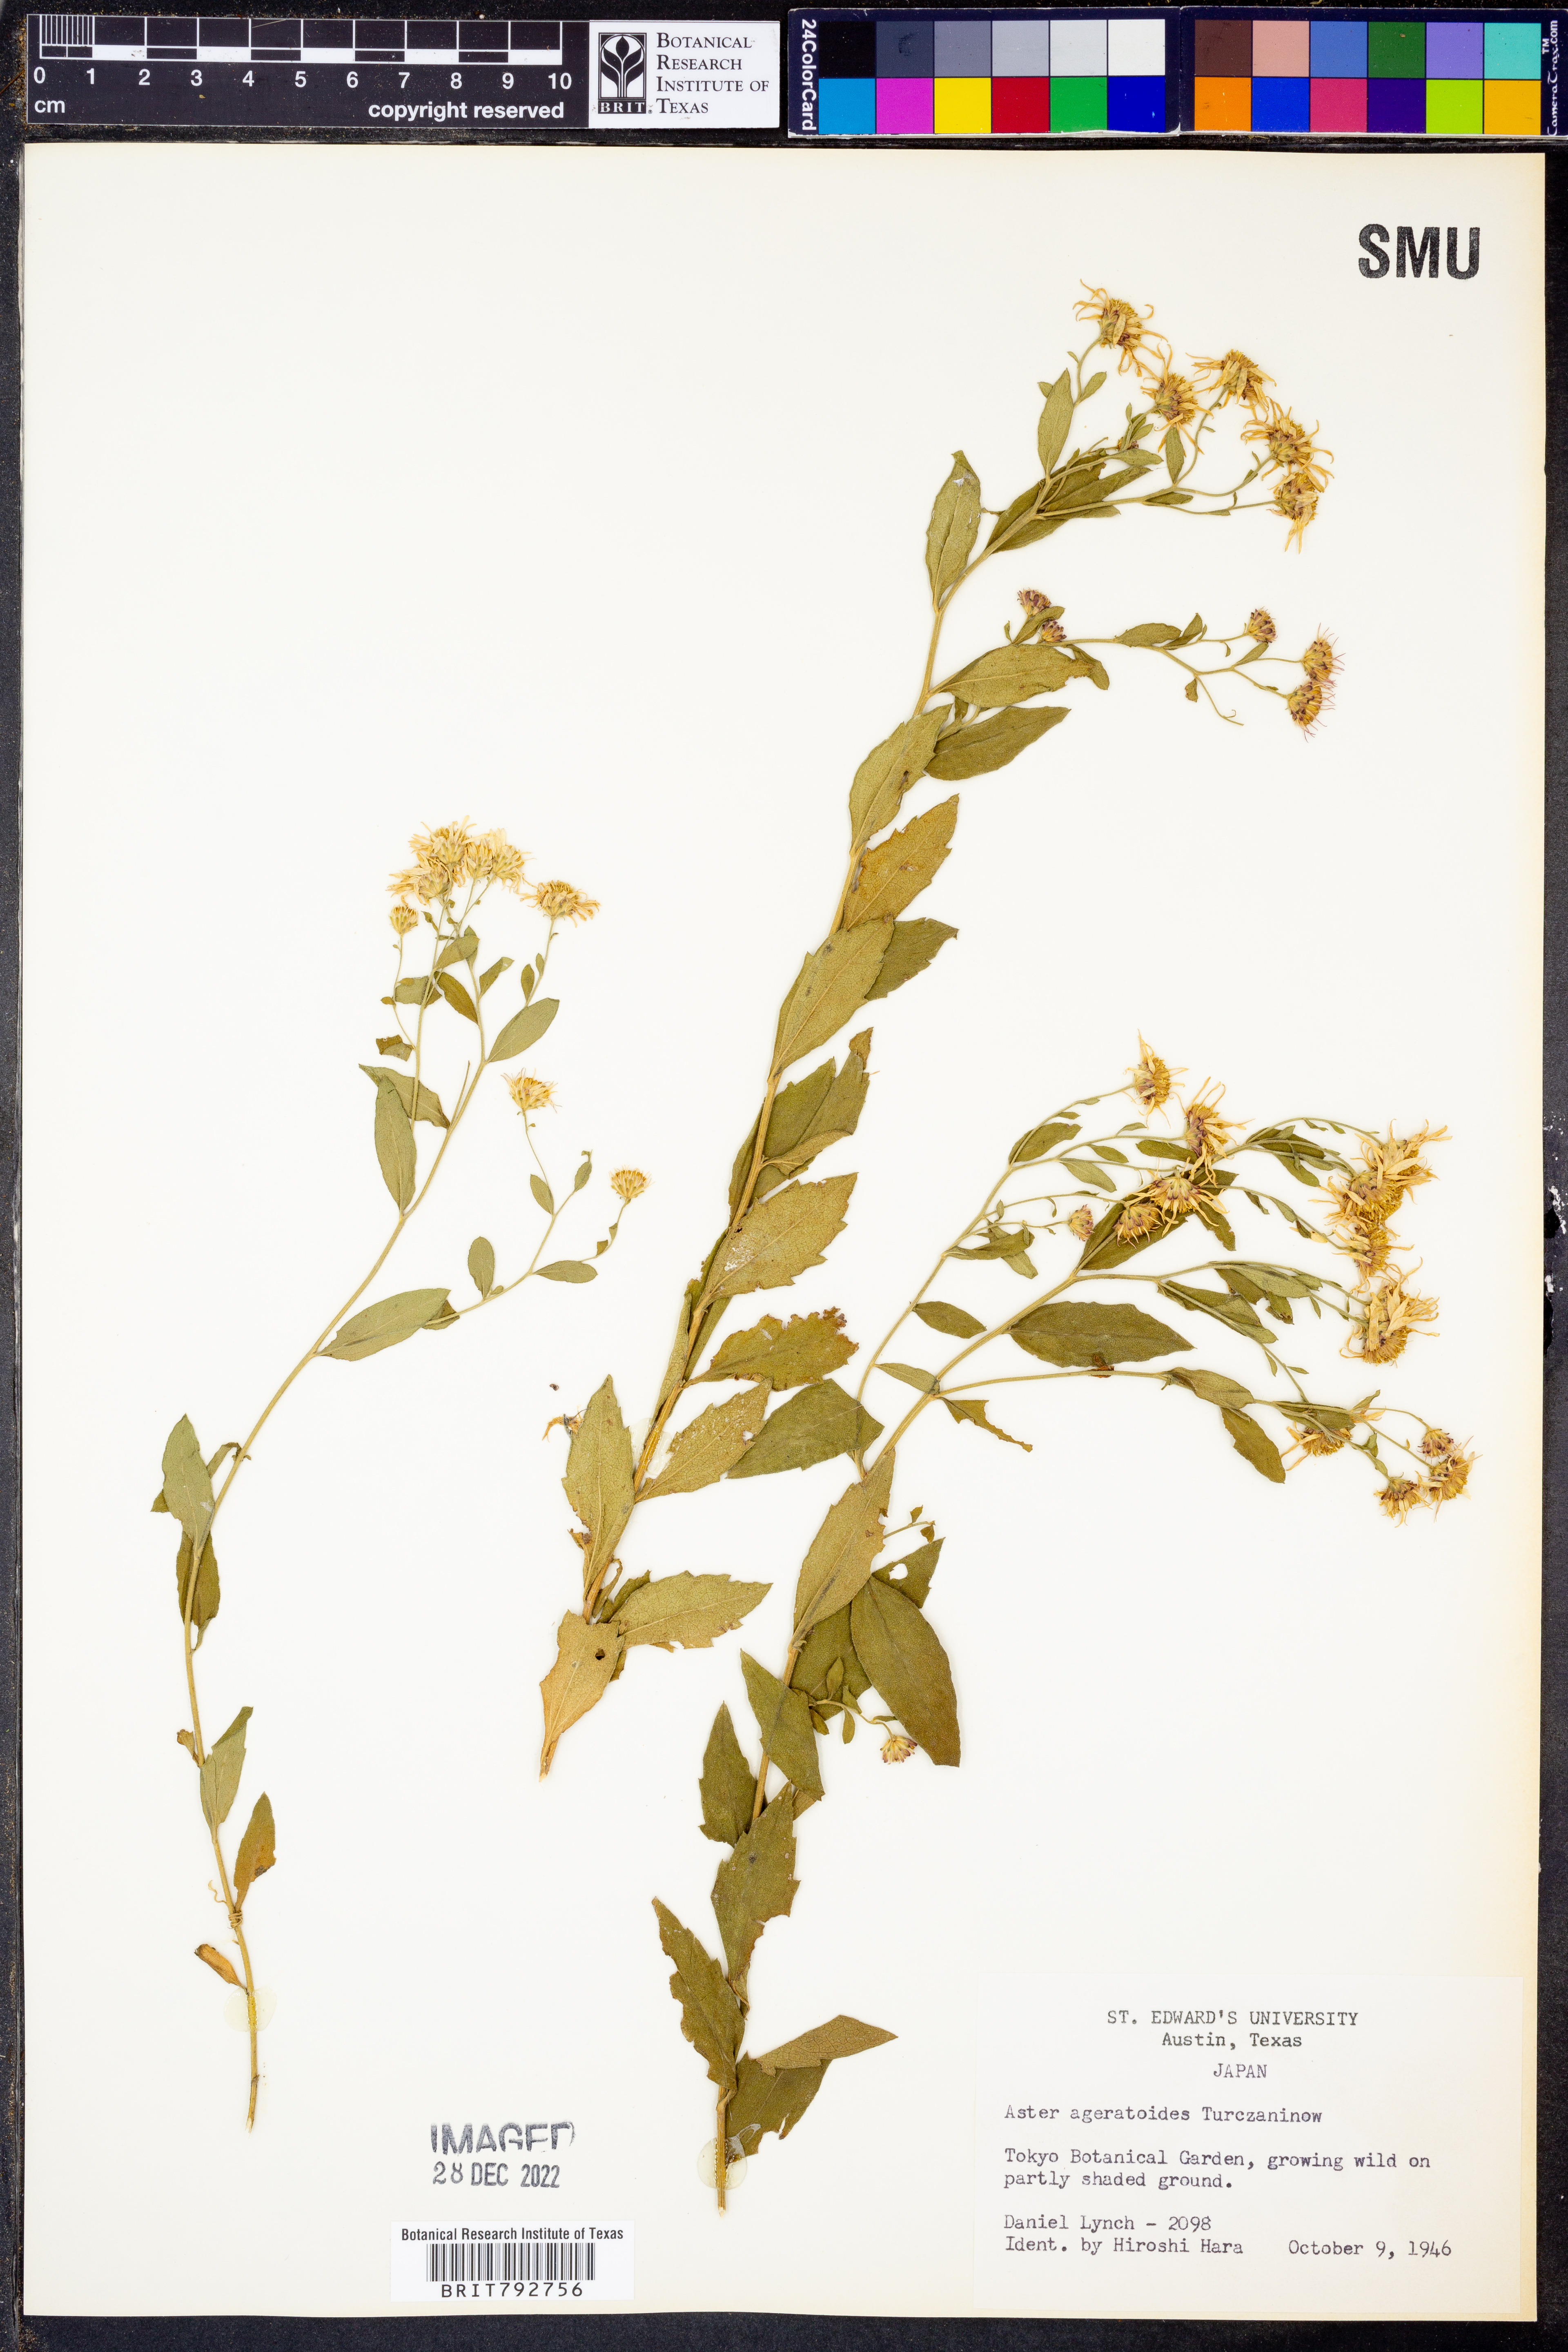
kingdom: Plantae
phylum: Tracheophyta
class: Magnoliopsida
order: Asterales
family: Asteraceae
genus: Aster
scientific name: Aster ageratoides
